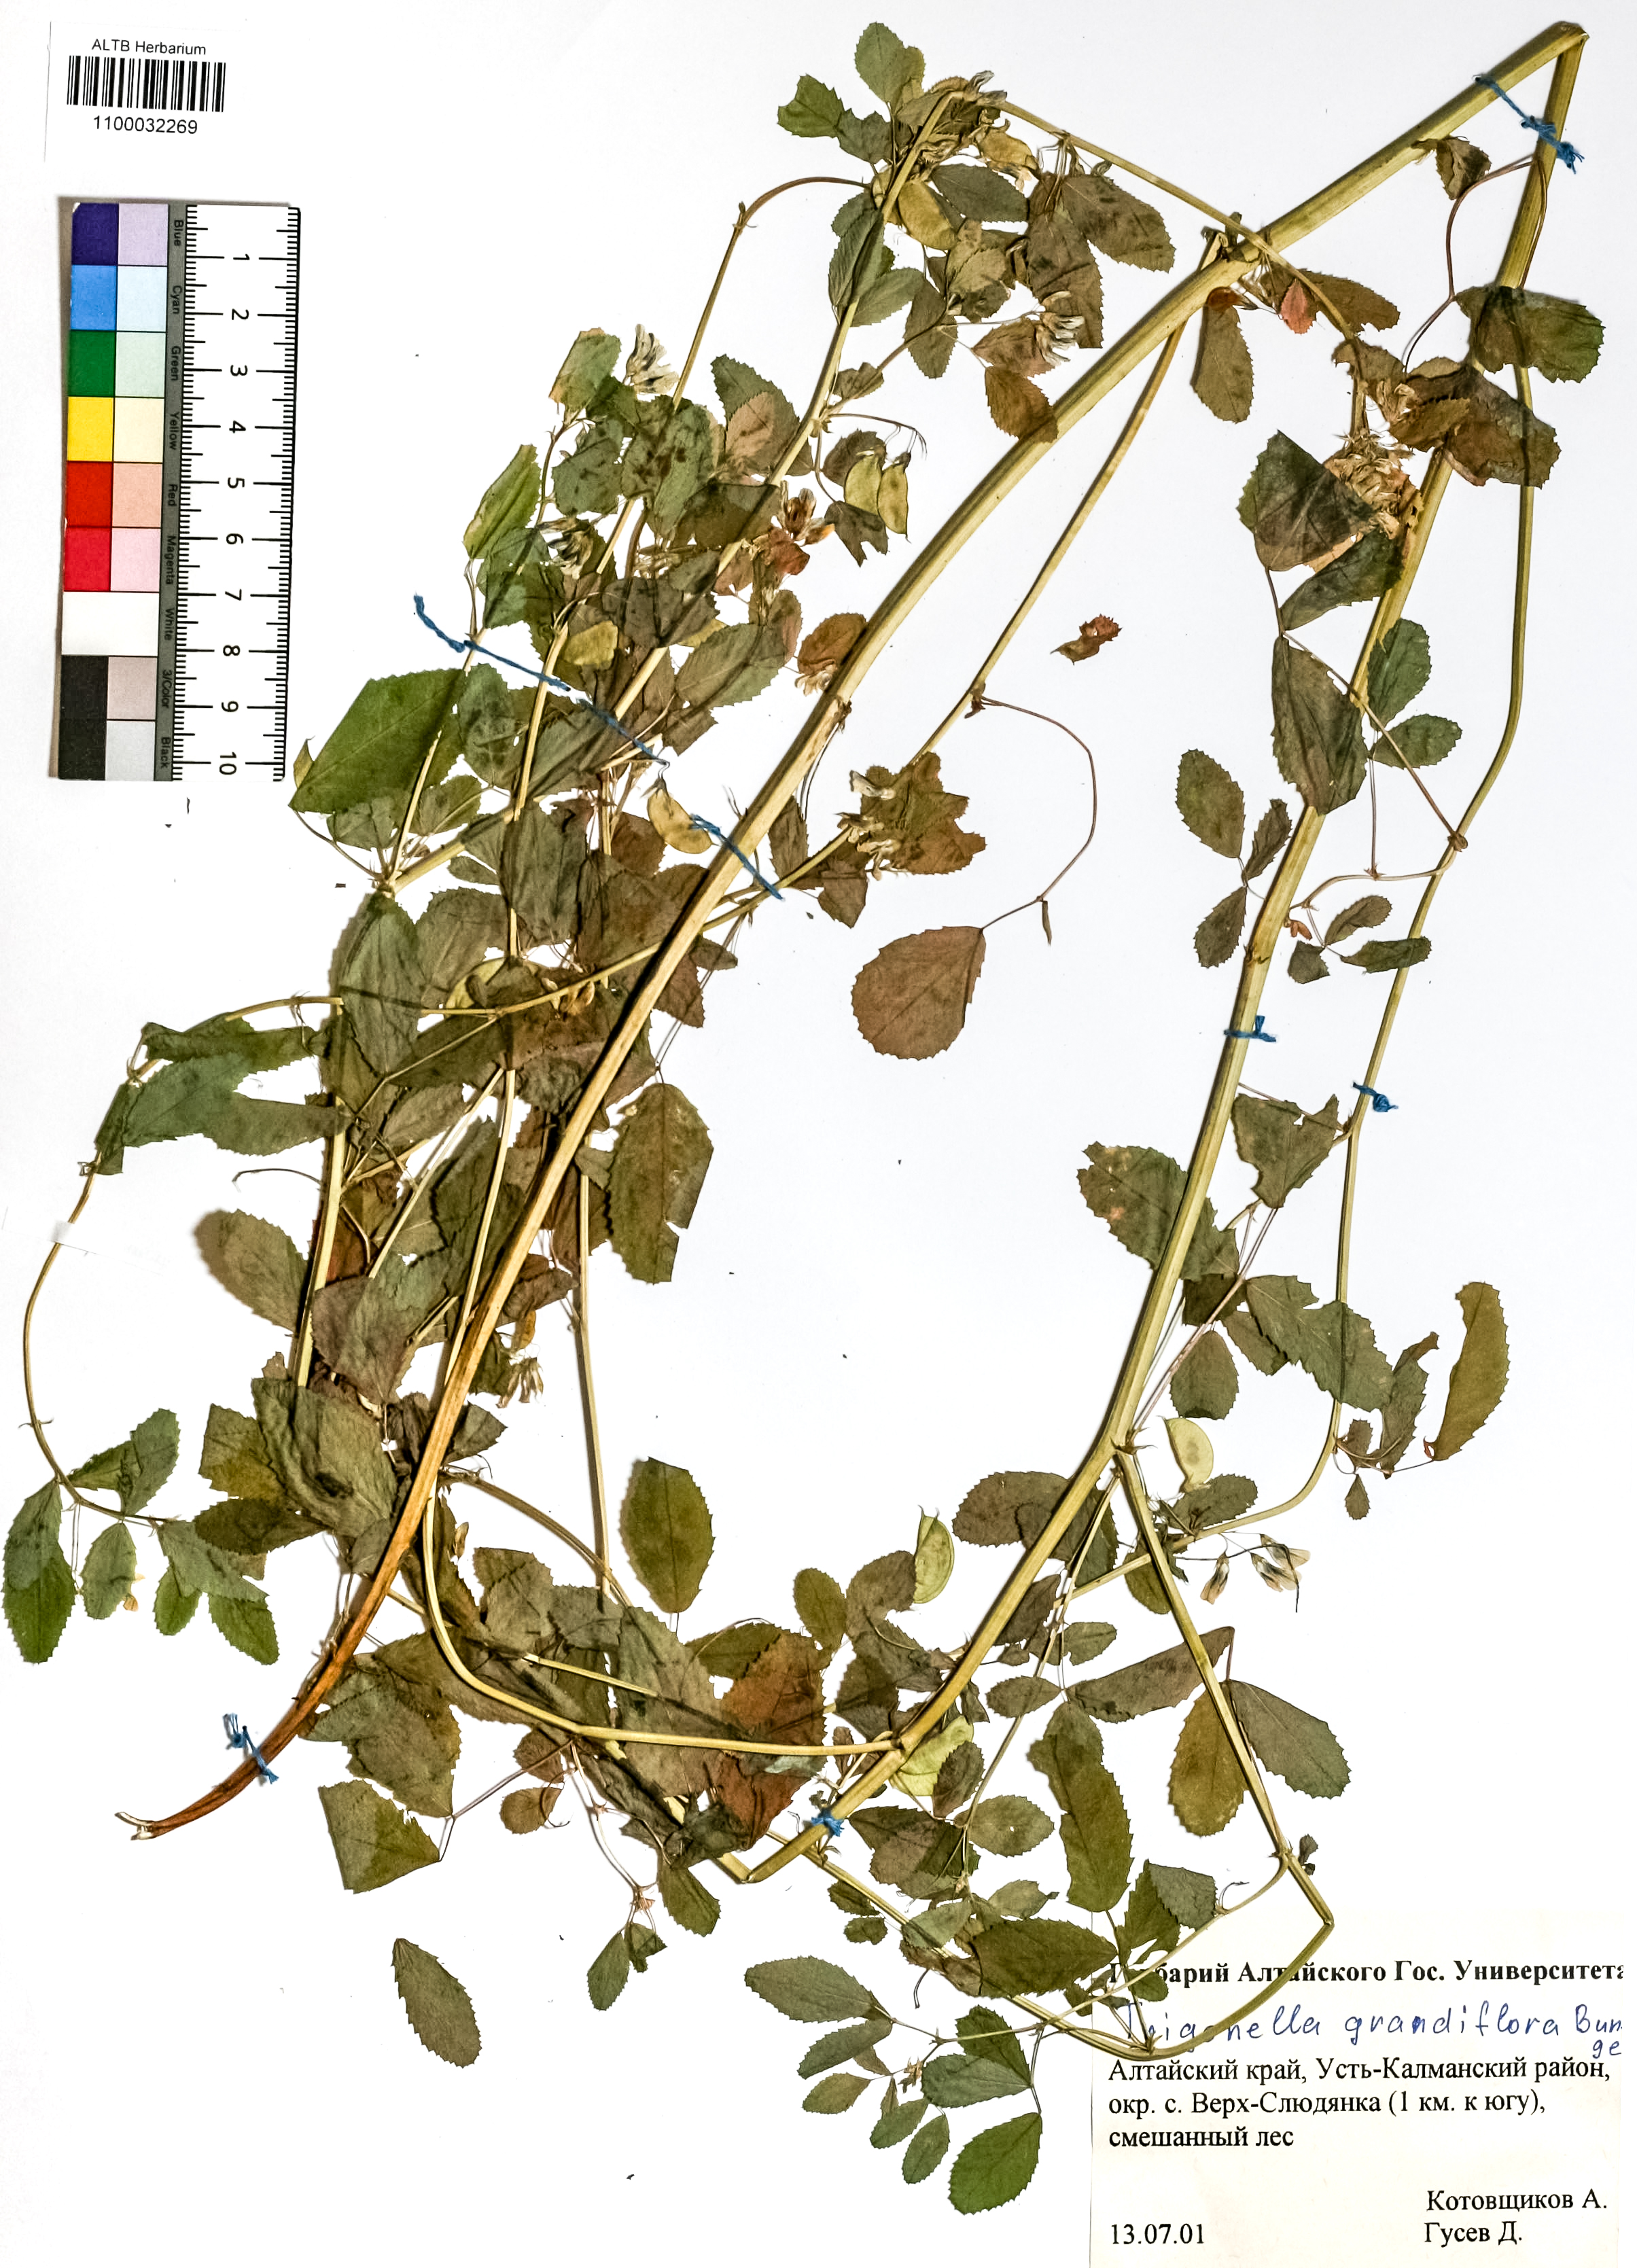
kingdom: Plantae
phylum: Tracheophyta
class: Magnoliopsida
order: Fabales
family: Fabaceae
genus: Trigonella
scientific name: Trigonella grandiflora
